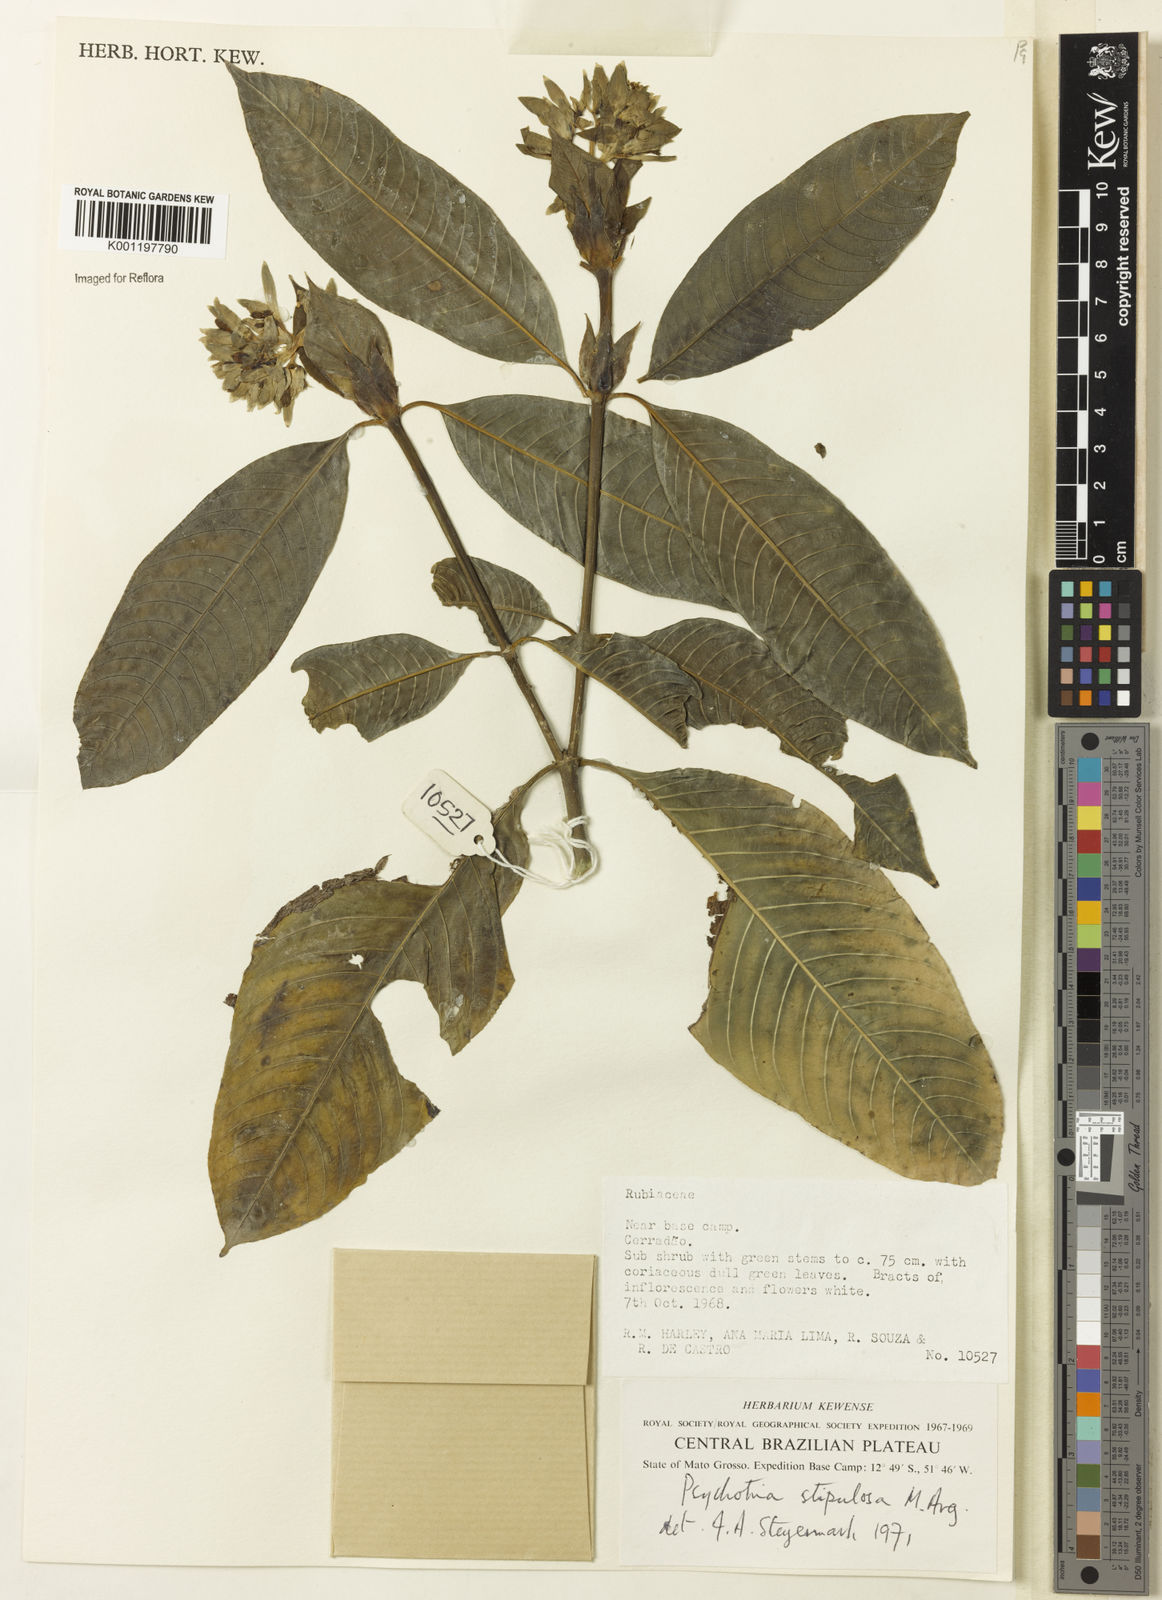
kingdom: Plantae
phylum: Tracheophyta
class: Magnoliopsida
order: Gentianales
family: Rubiaceae
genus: Psychotria
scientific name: Psychotria
